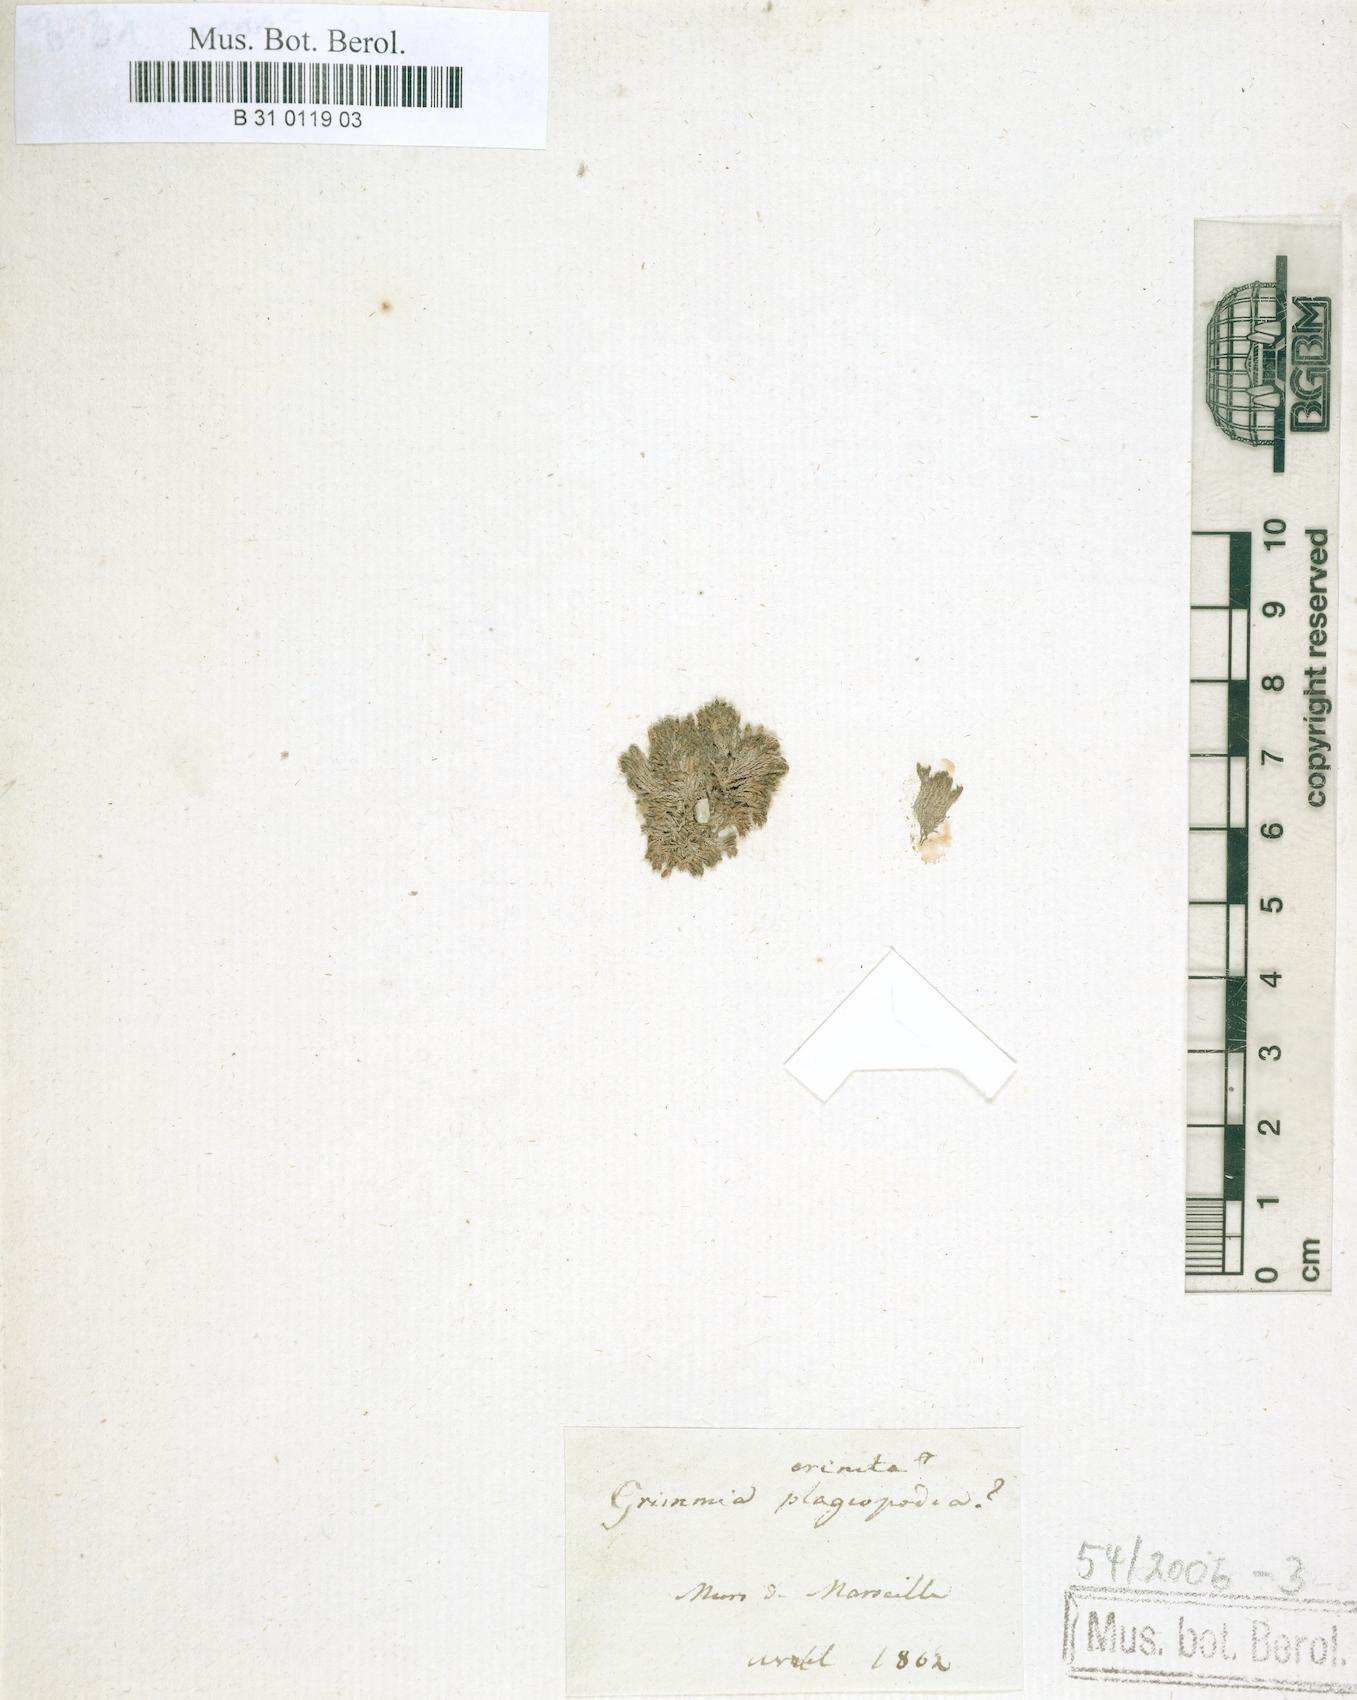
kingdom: Plantae
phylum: Bryophyta
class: Bryopsida
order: Grimmiales
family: Grimmiaceae
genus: Grimmia
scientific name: Grimmia crinita
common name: Hedgehog grimmia
